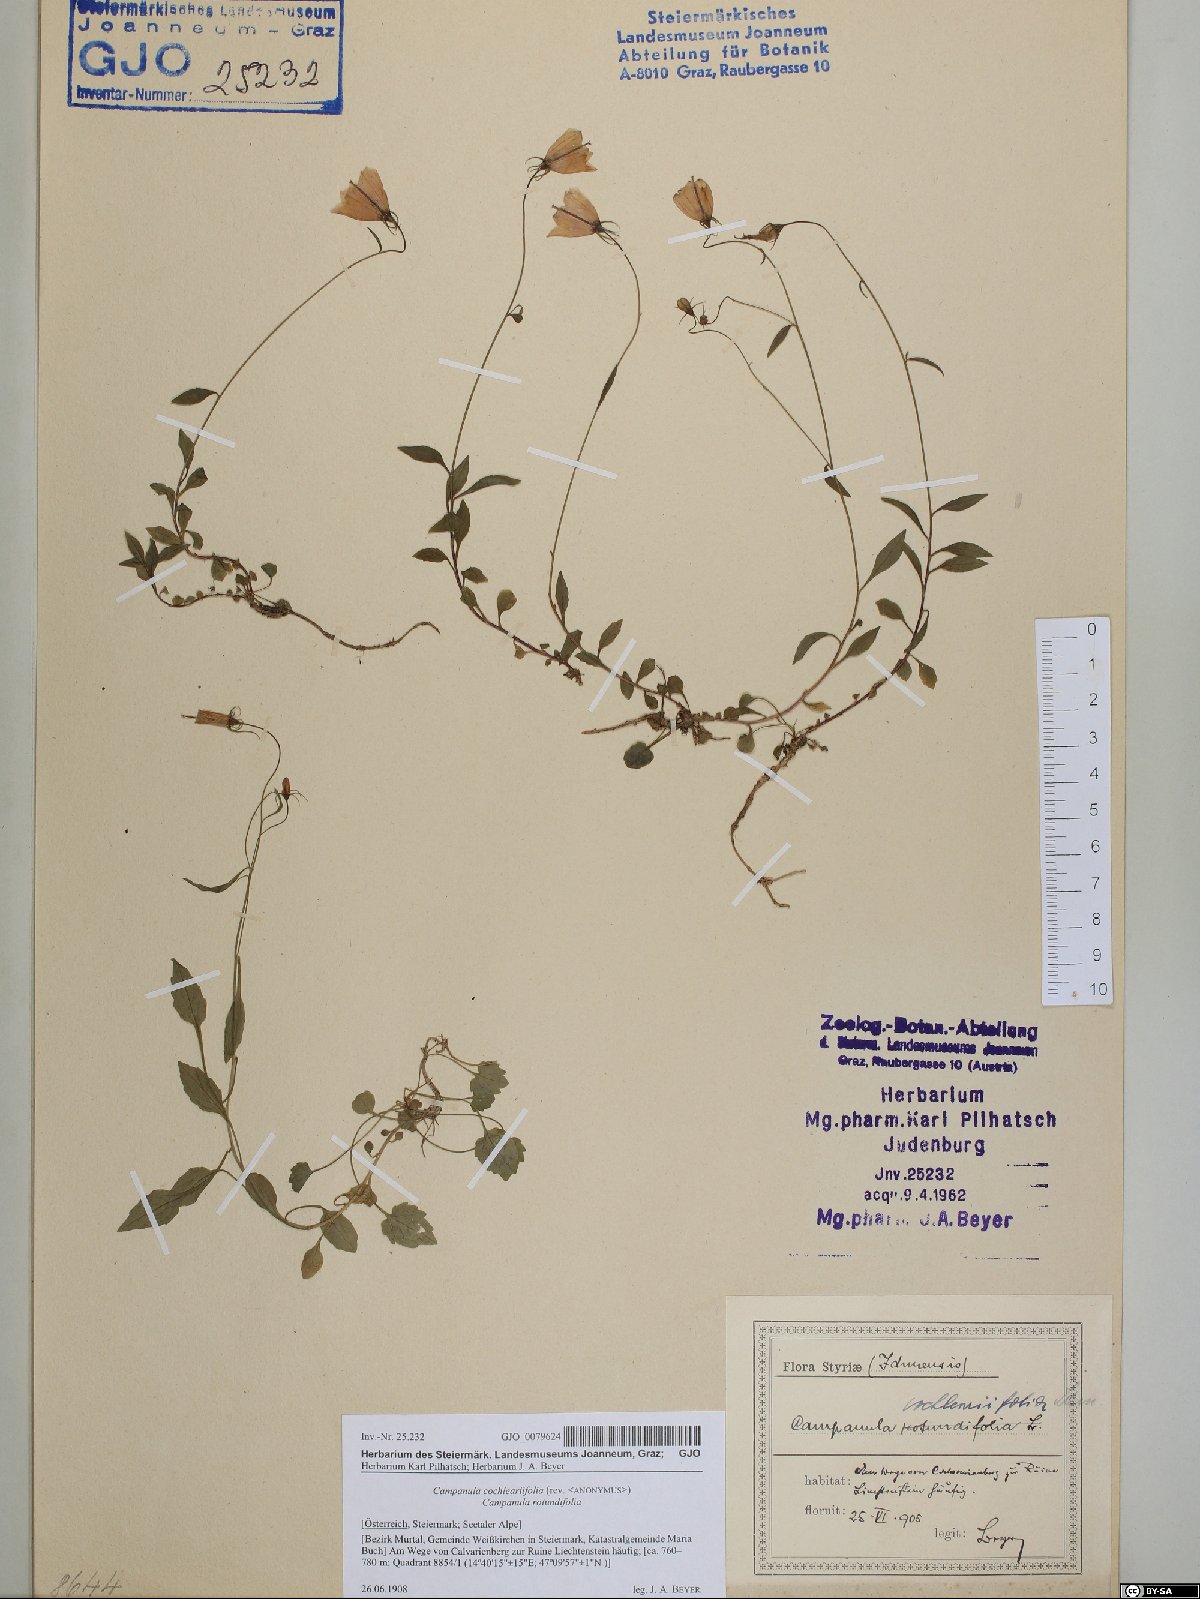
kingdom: Plantae
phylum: Tracheophyta
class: Magnoliopsida
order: Asterales
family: Campanulaceae
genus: Campanula
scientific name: Campanula cochleariifolia
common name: Fairies'-thimbles
